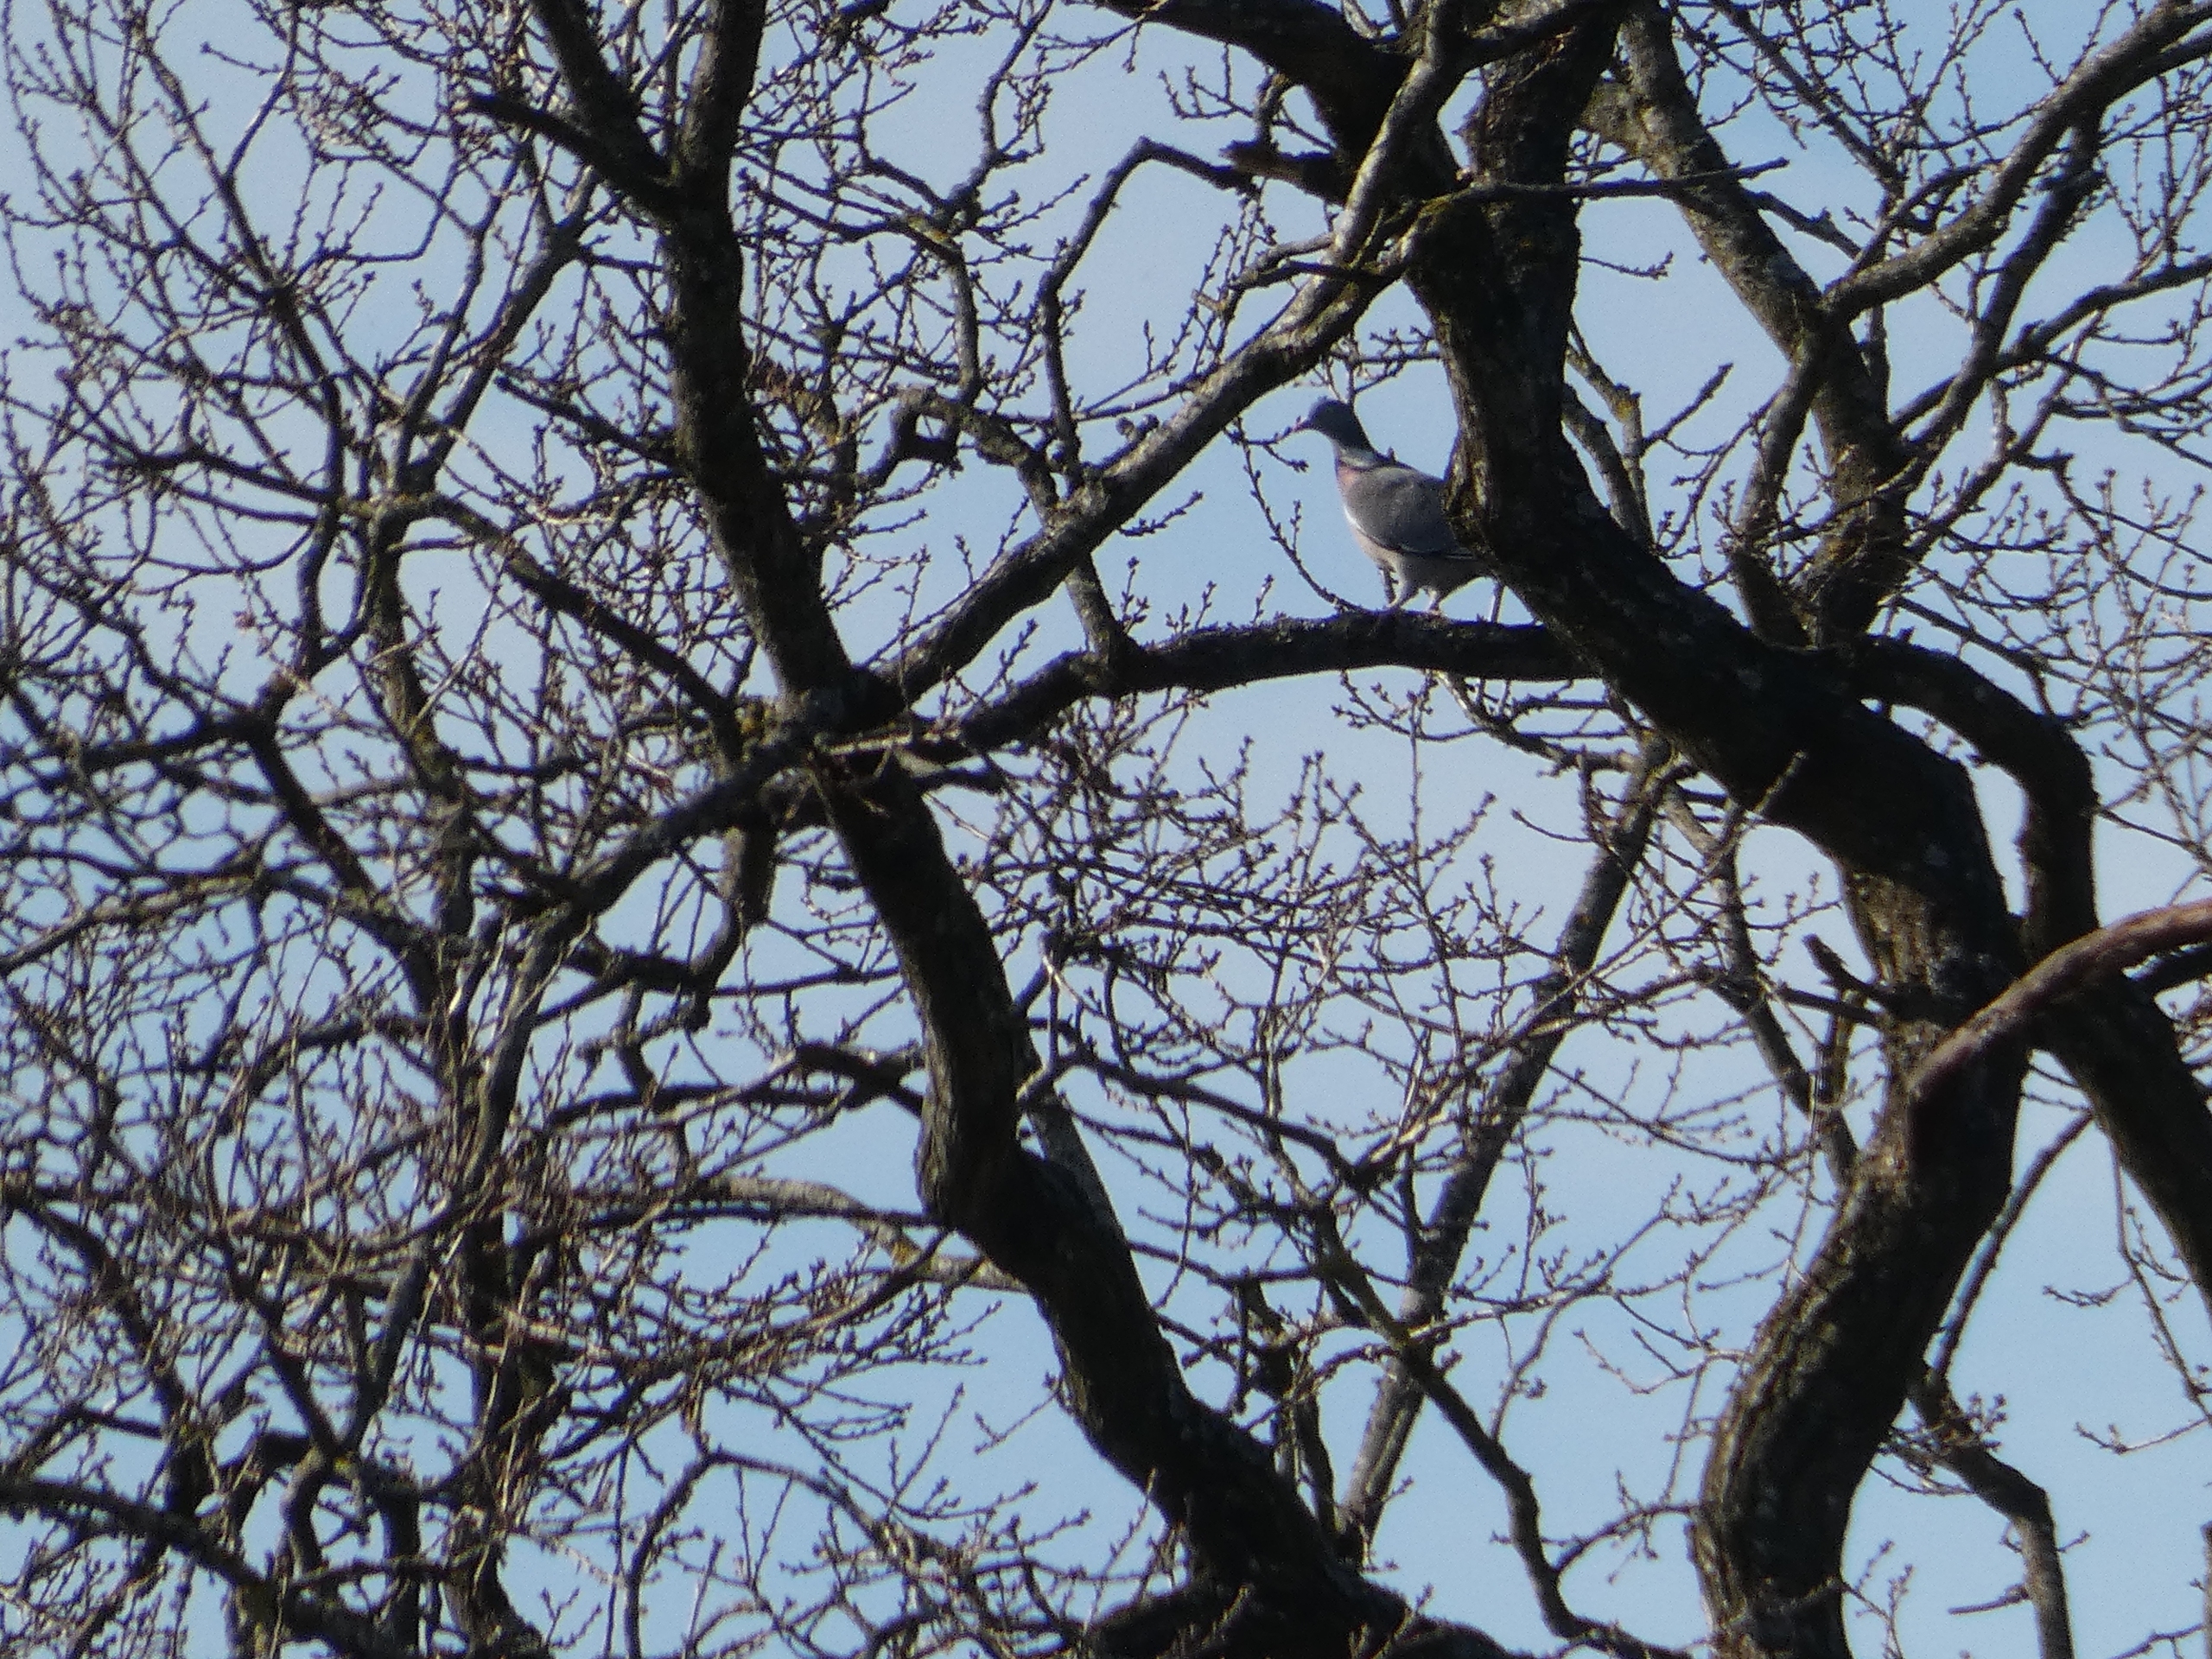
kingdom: Animalia
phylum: Chordata
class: Aves
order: Columbiformes
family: Columbidae
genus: Columba
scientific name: Columba palumbus
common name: Ringdue
